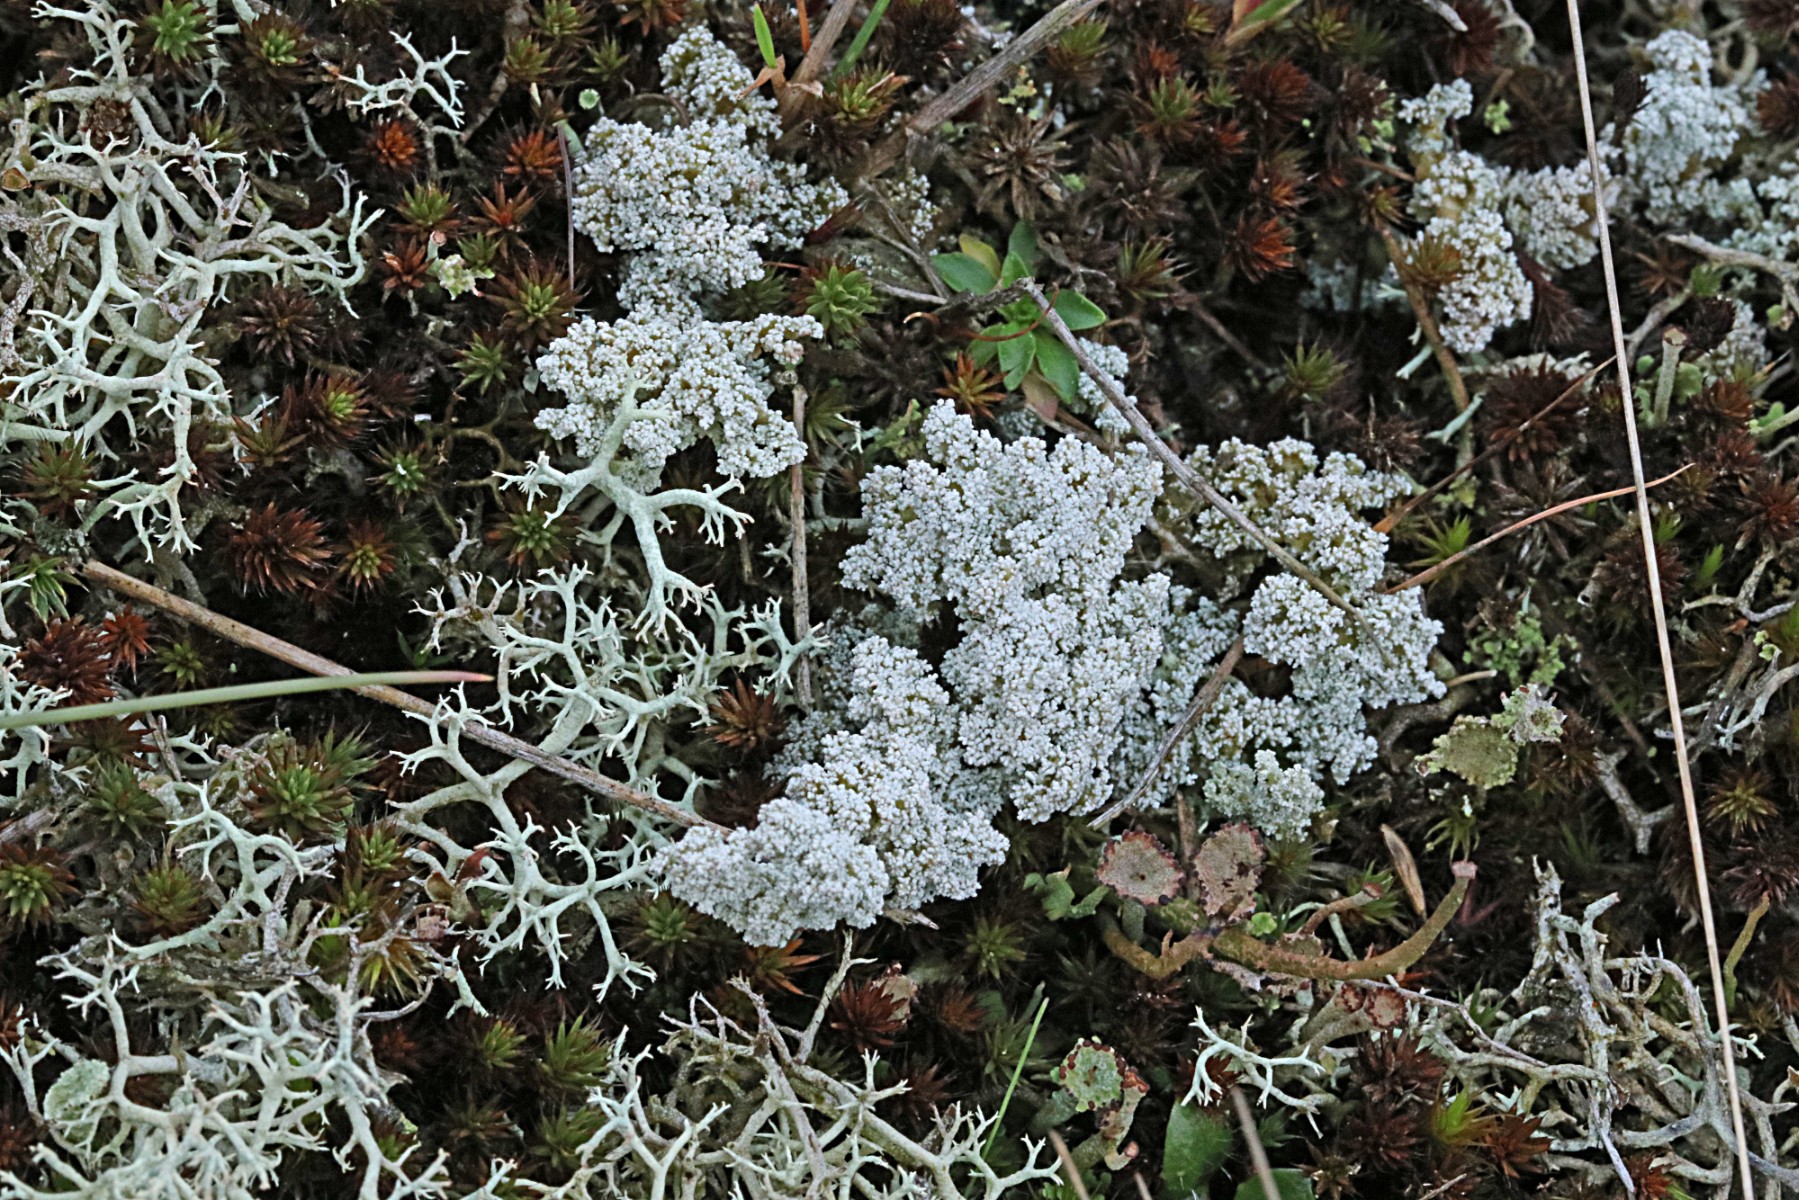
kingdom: Fungi
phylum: Ascomycota
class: Lecanoromycetes
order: Lecanorales
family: Stereocaulaceae
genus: Stereocaulon
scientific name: Stereocaulon saxatile
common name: klit-korallav
